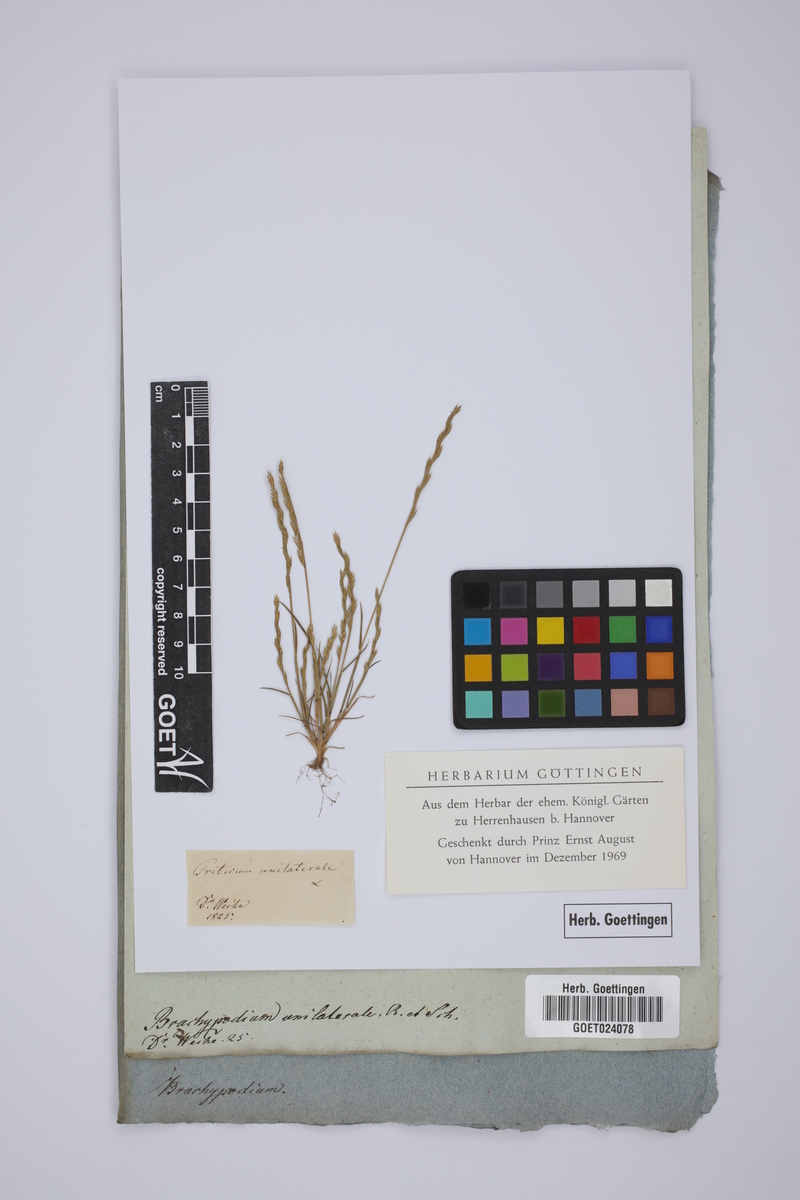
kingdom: Plantae
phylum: Tracheophyta
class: Liliopsida
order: Poales
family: Poaceae
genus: Festuca
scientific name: Festuca maritima
